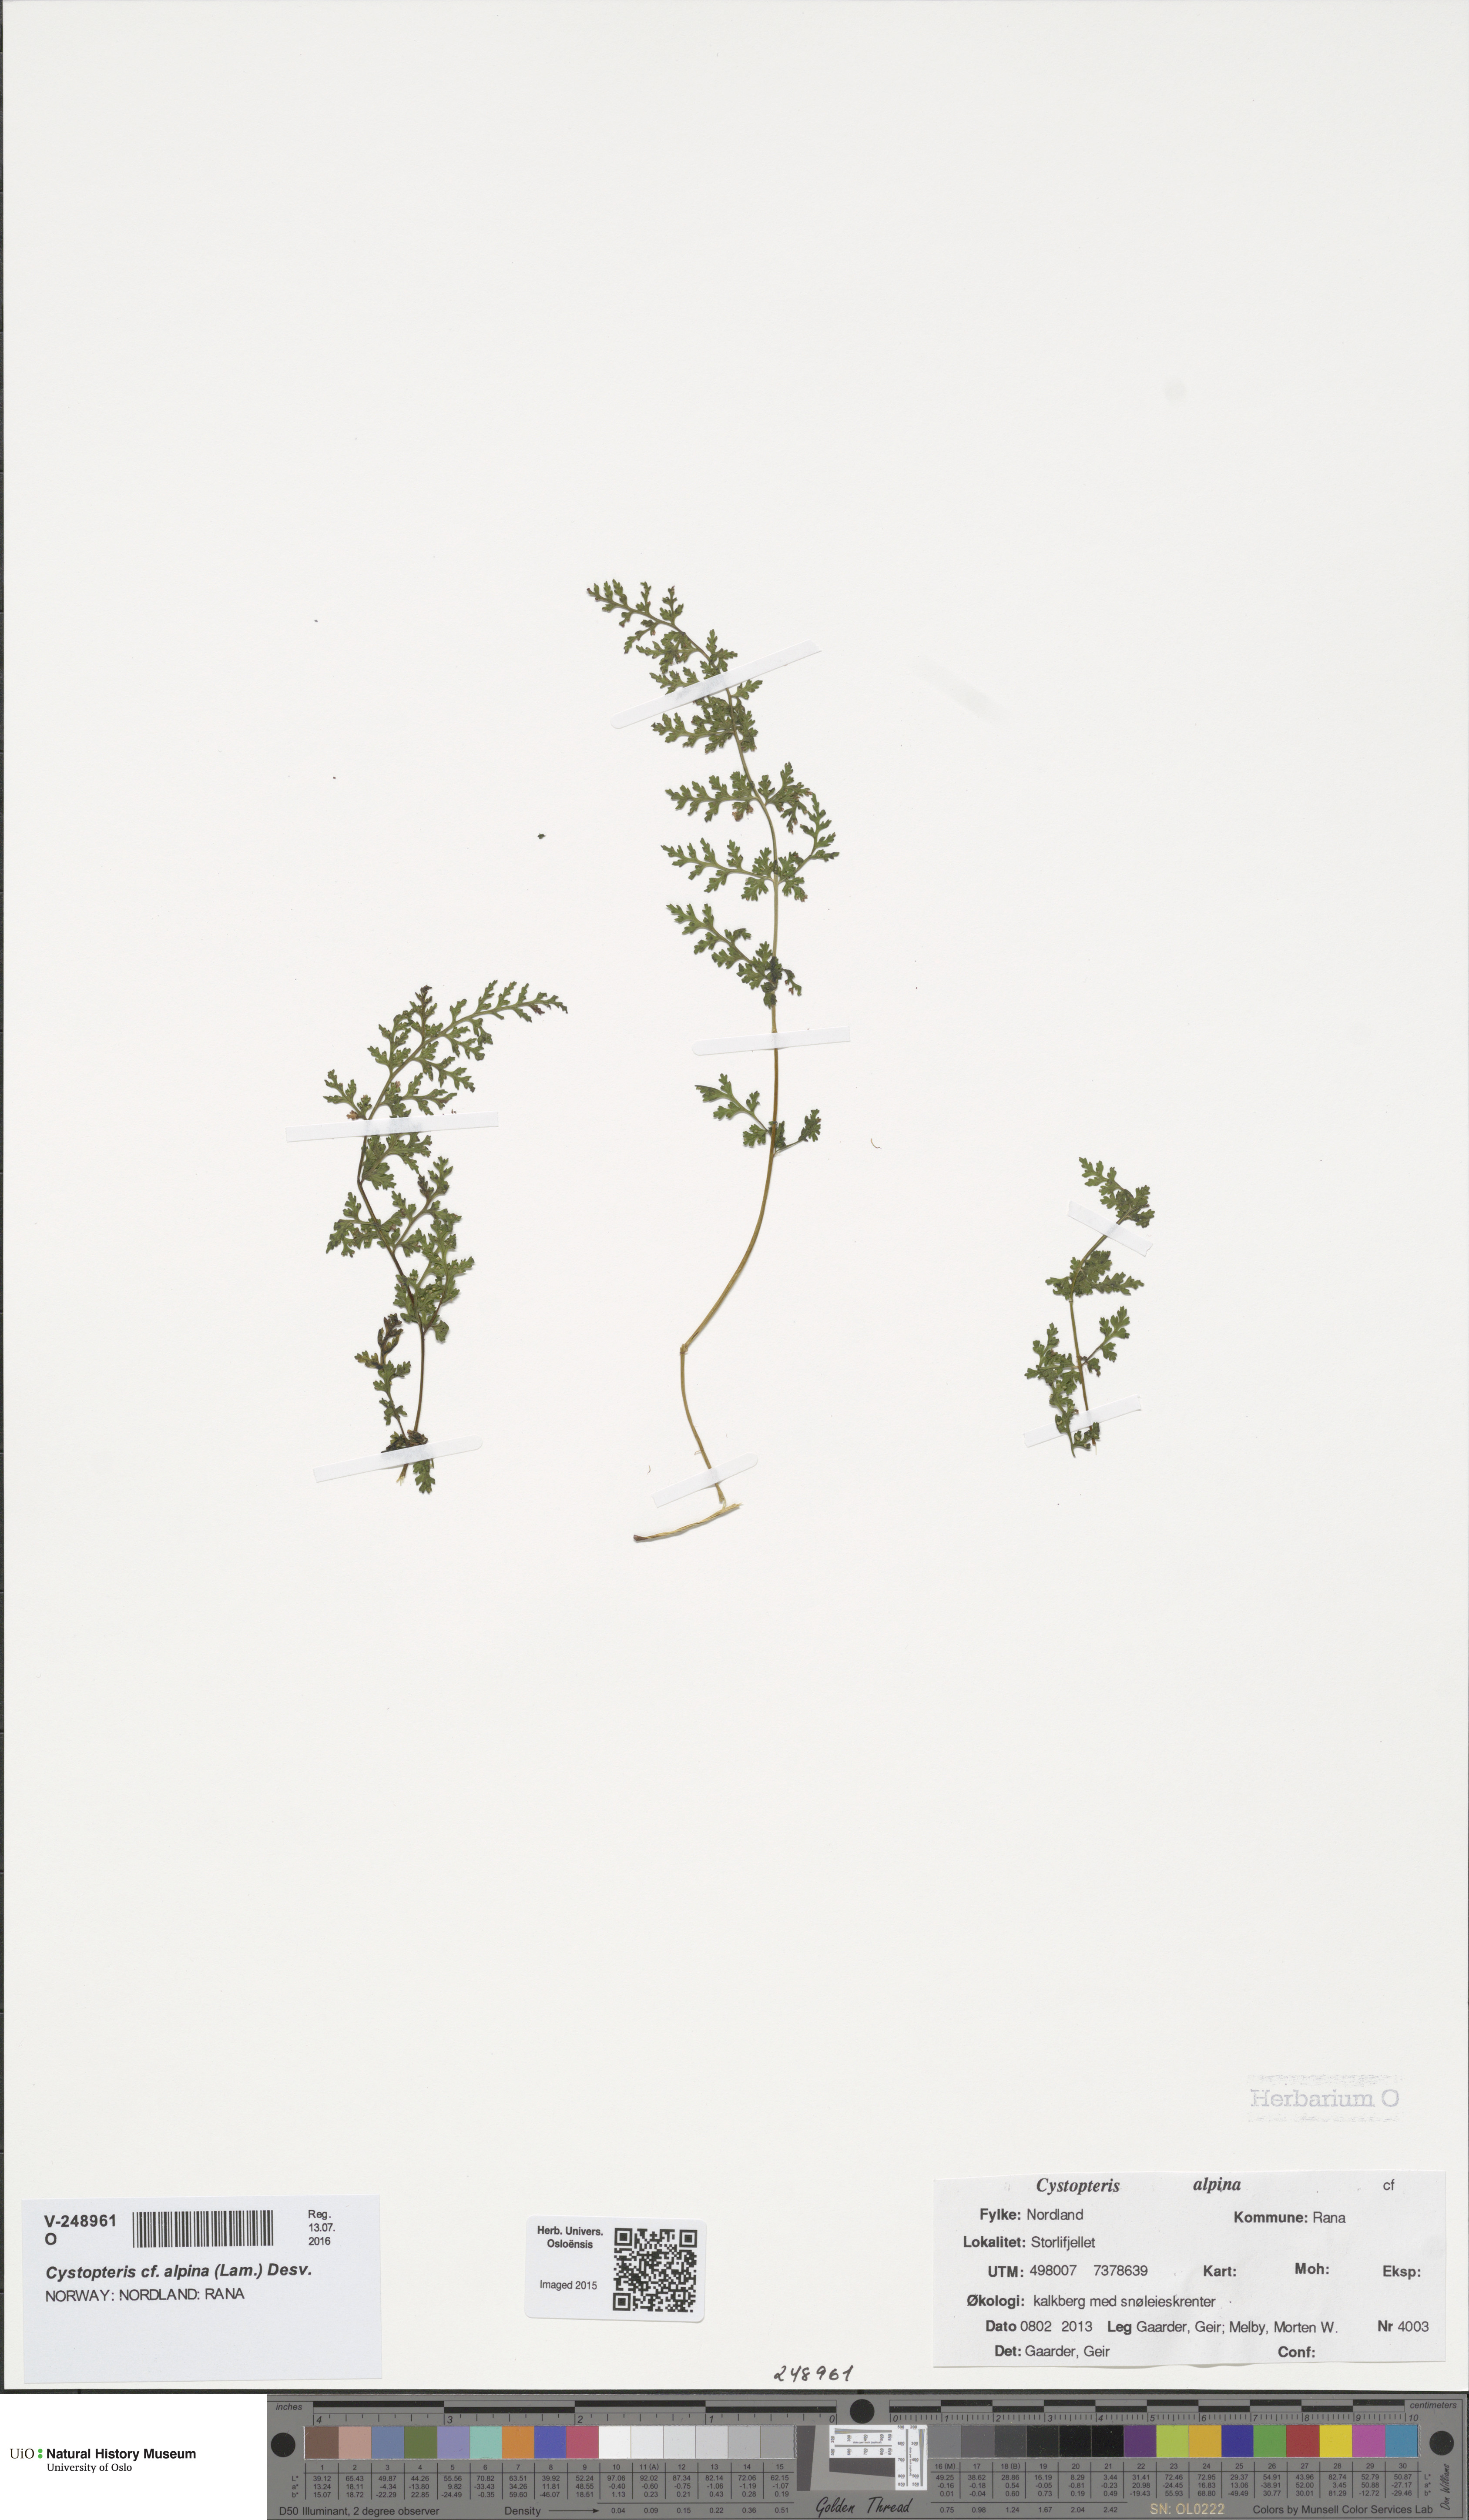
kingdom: Plantae
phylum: Tracheophyta
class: Polypodiopsida
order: Polypodiales
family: Cystopteridaceae
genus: Cystopteris
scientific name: Cystopteris alpina
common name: Alpine bladder-fern
